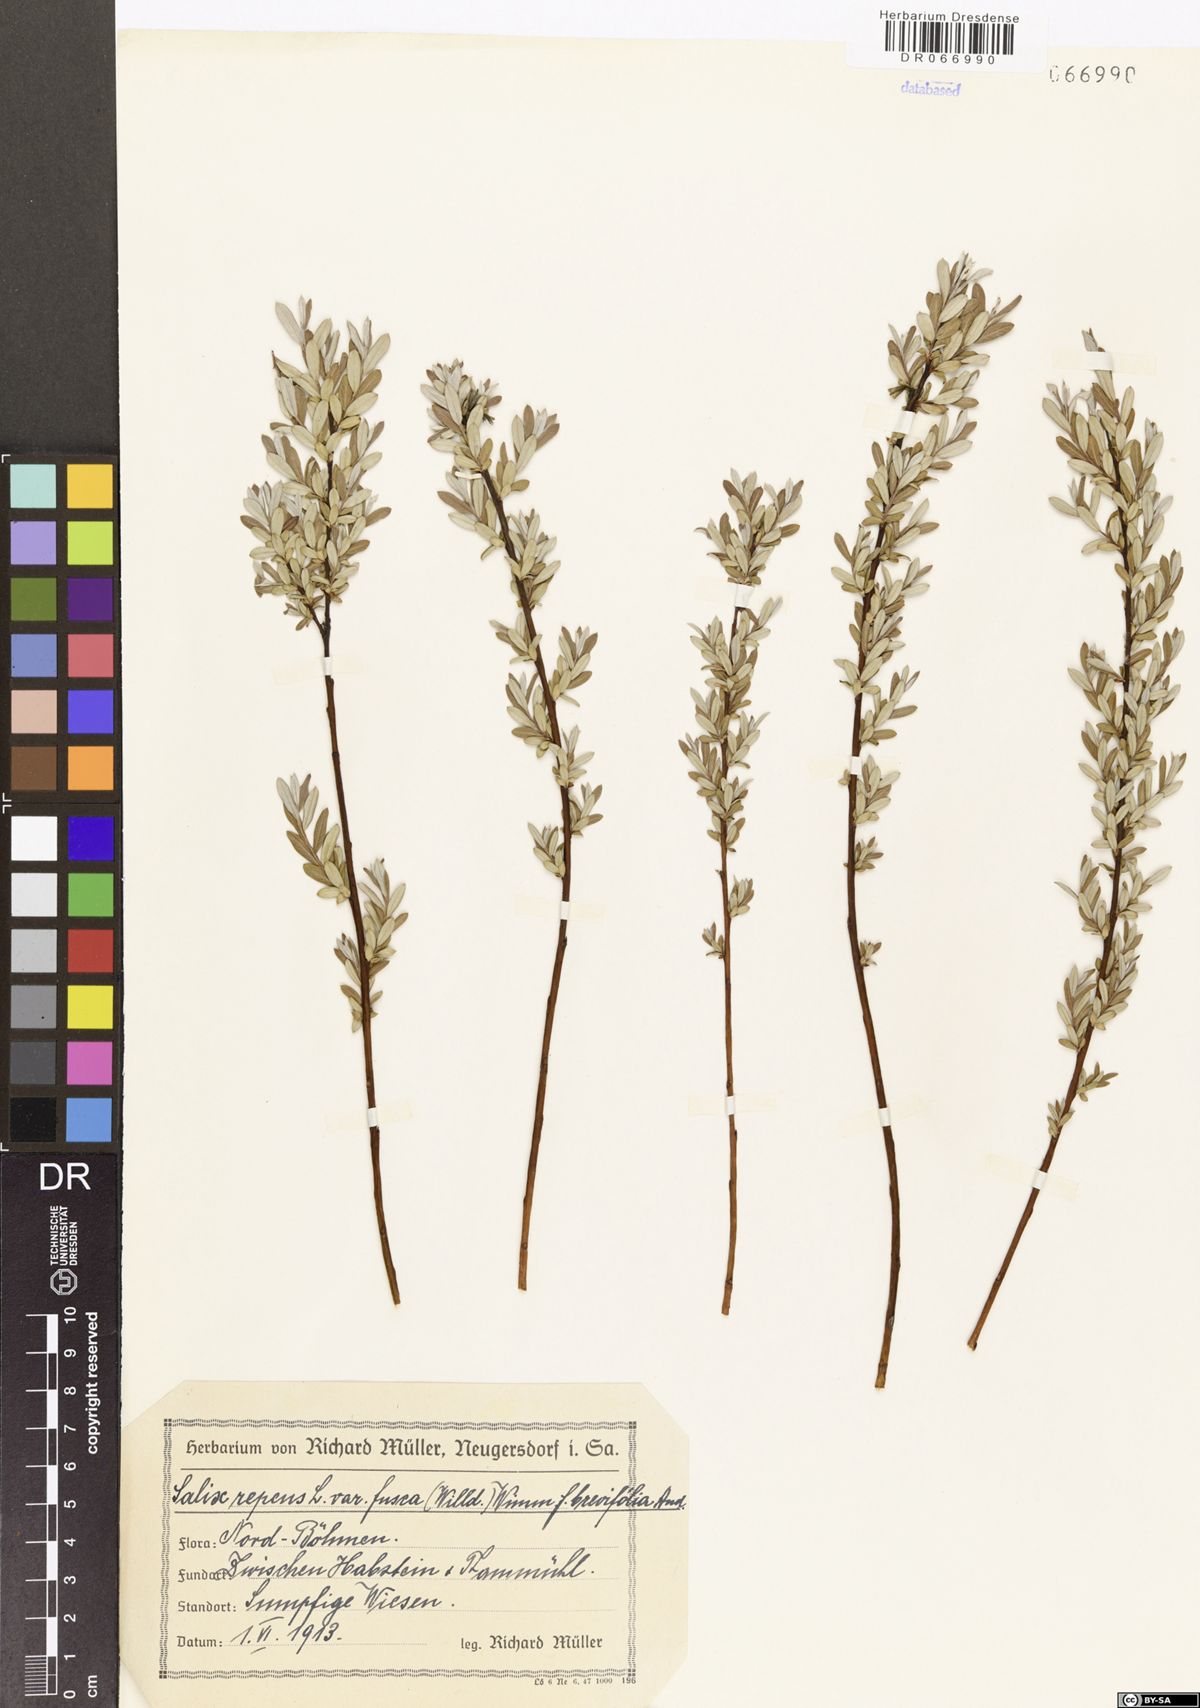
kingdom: Plantae
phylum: Tracheophyta
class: Magnoliopsida
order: Malpighiales
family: Salicaceae
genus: Salix
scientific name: Salix repens
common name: Creeping willow
